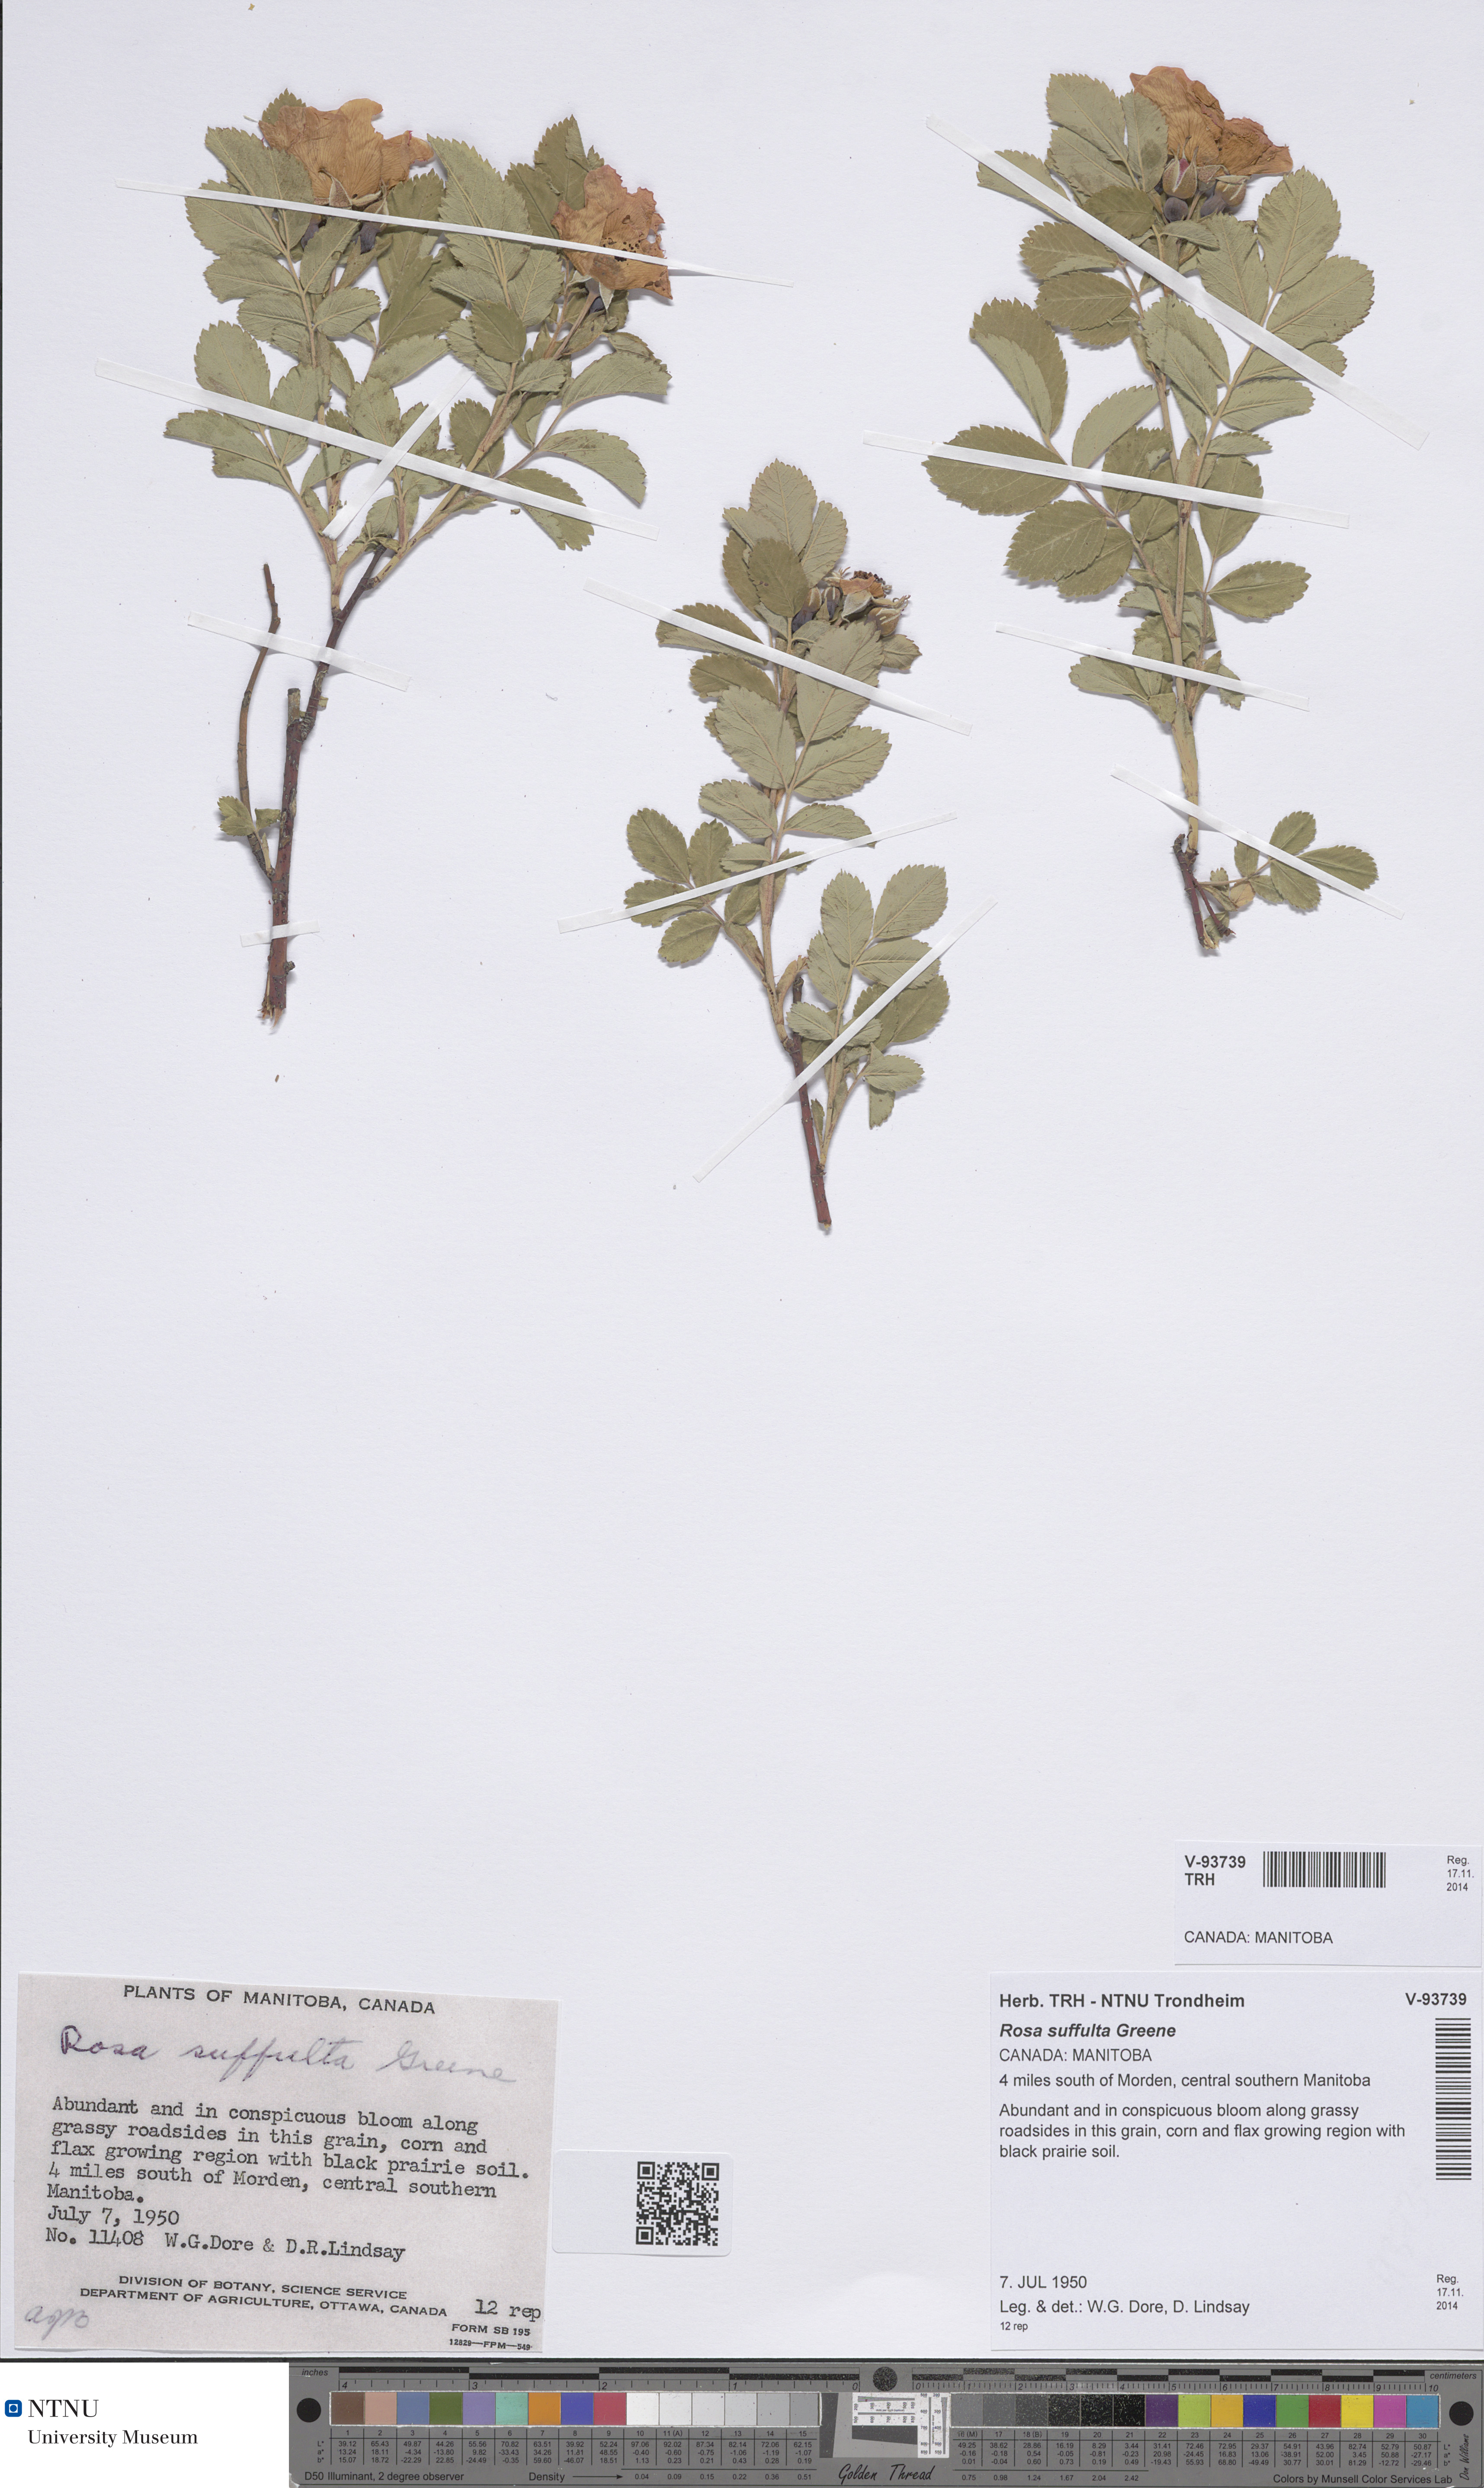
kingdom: Plantae
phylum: Tracheophyta
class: Magnoliopsida
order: Rosales
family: Rosaceae
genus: Rosa
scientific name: Rosa arkansana
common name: Prairie rose
